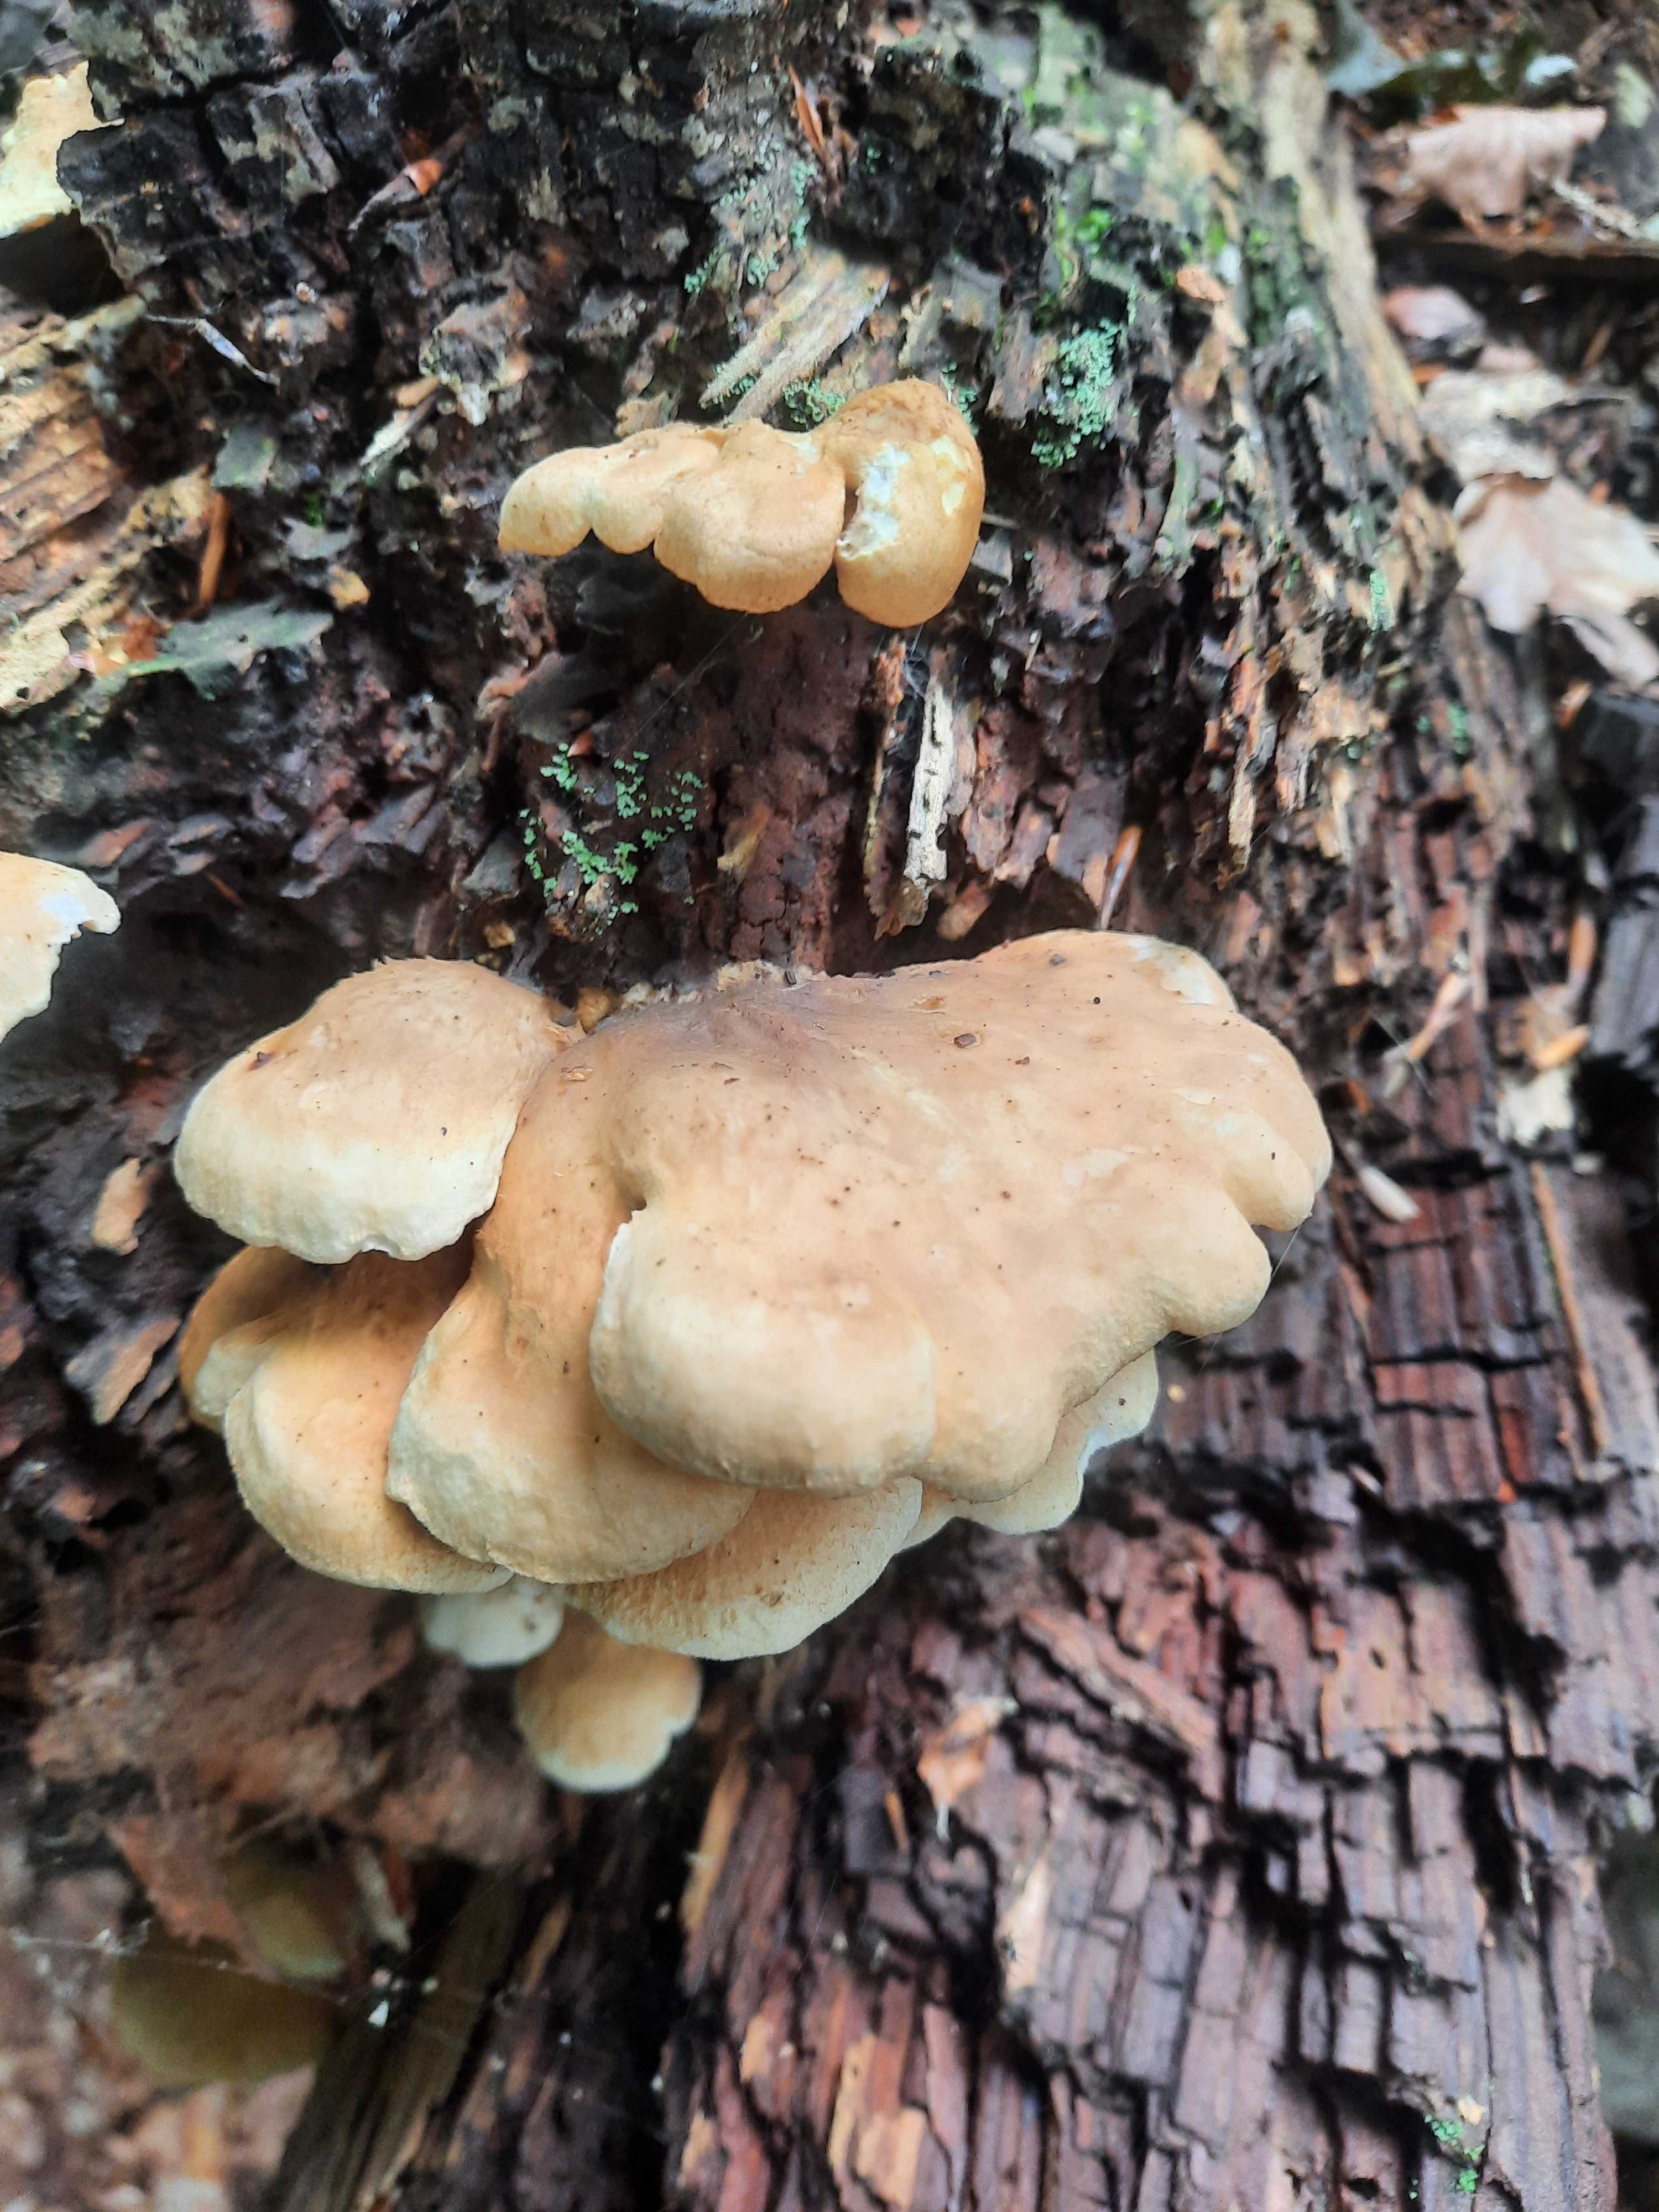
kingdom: Fungi
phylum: Basidiomycota
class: Agaricomycetes
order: Boletales
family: Tapinellaceae
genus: Tapinella
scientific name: Tapinella panuoides
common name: tømmer-viftesvamp
